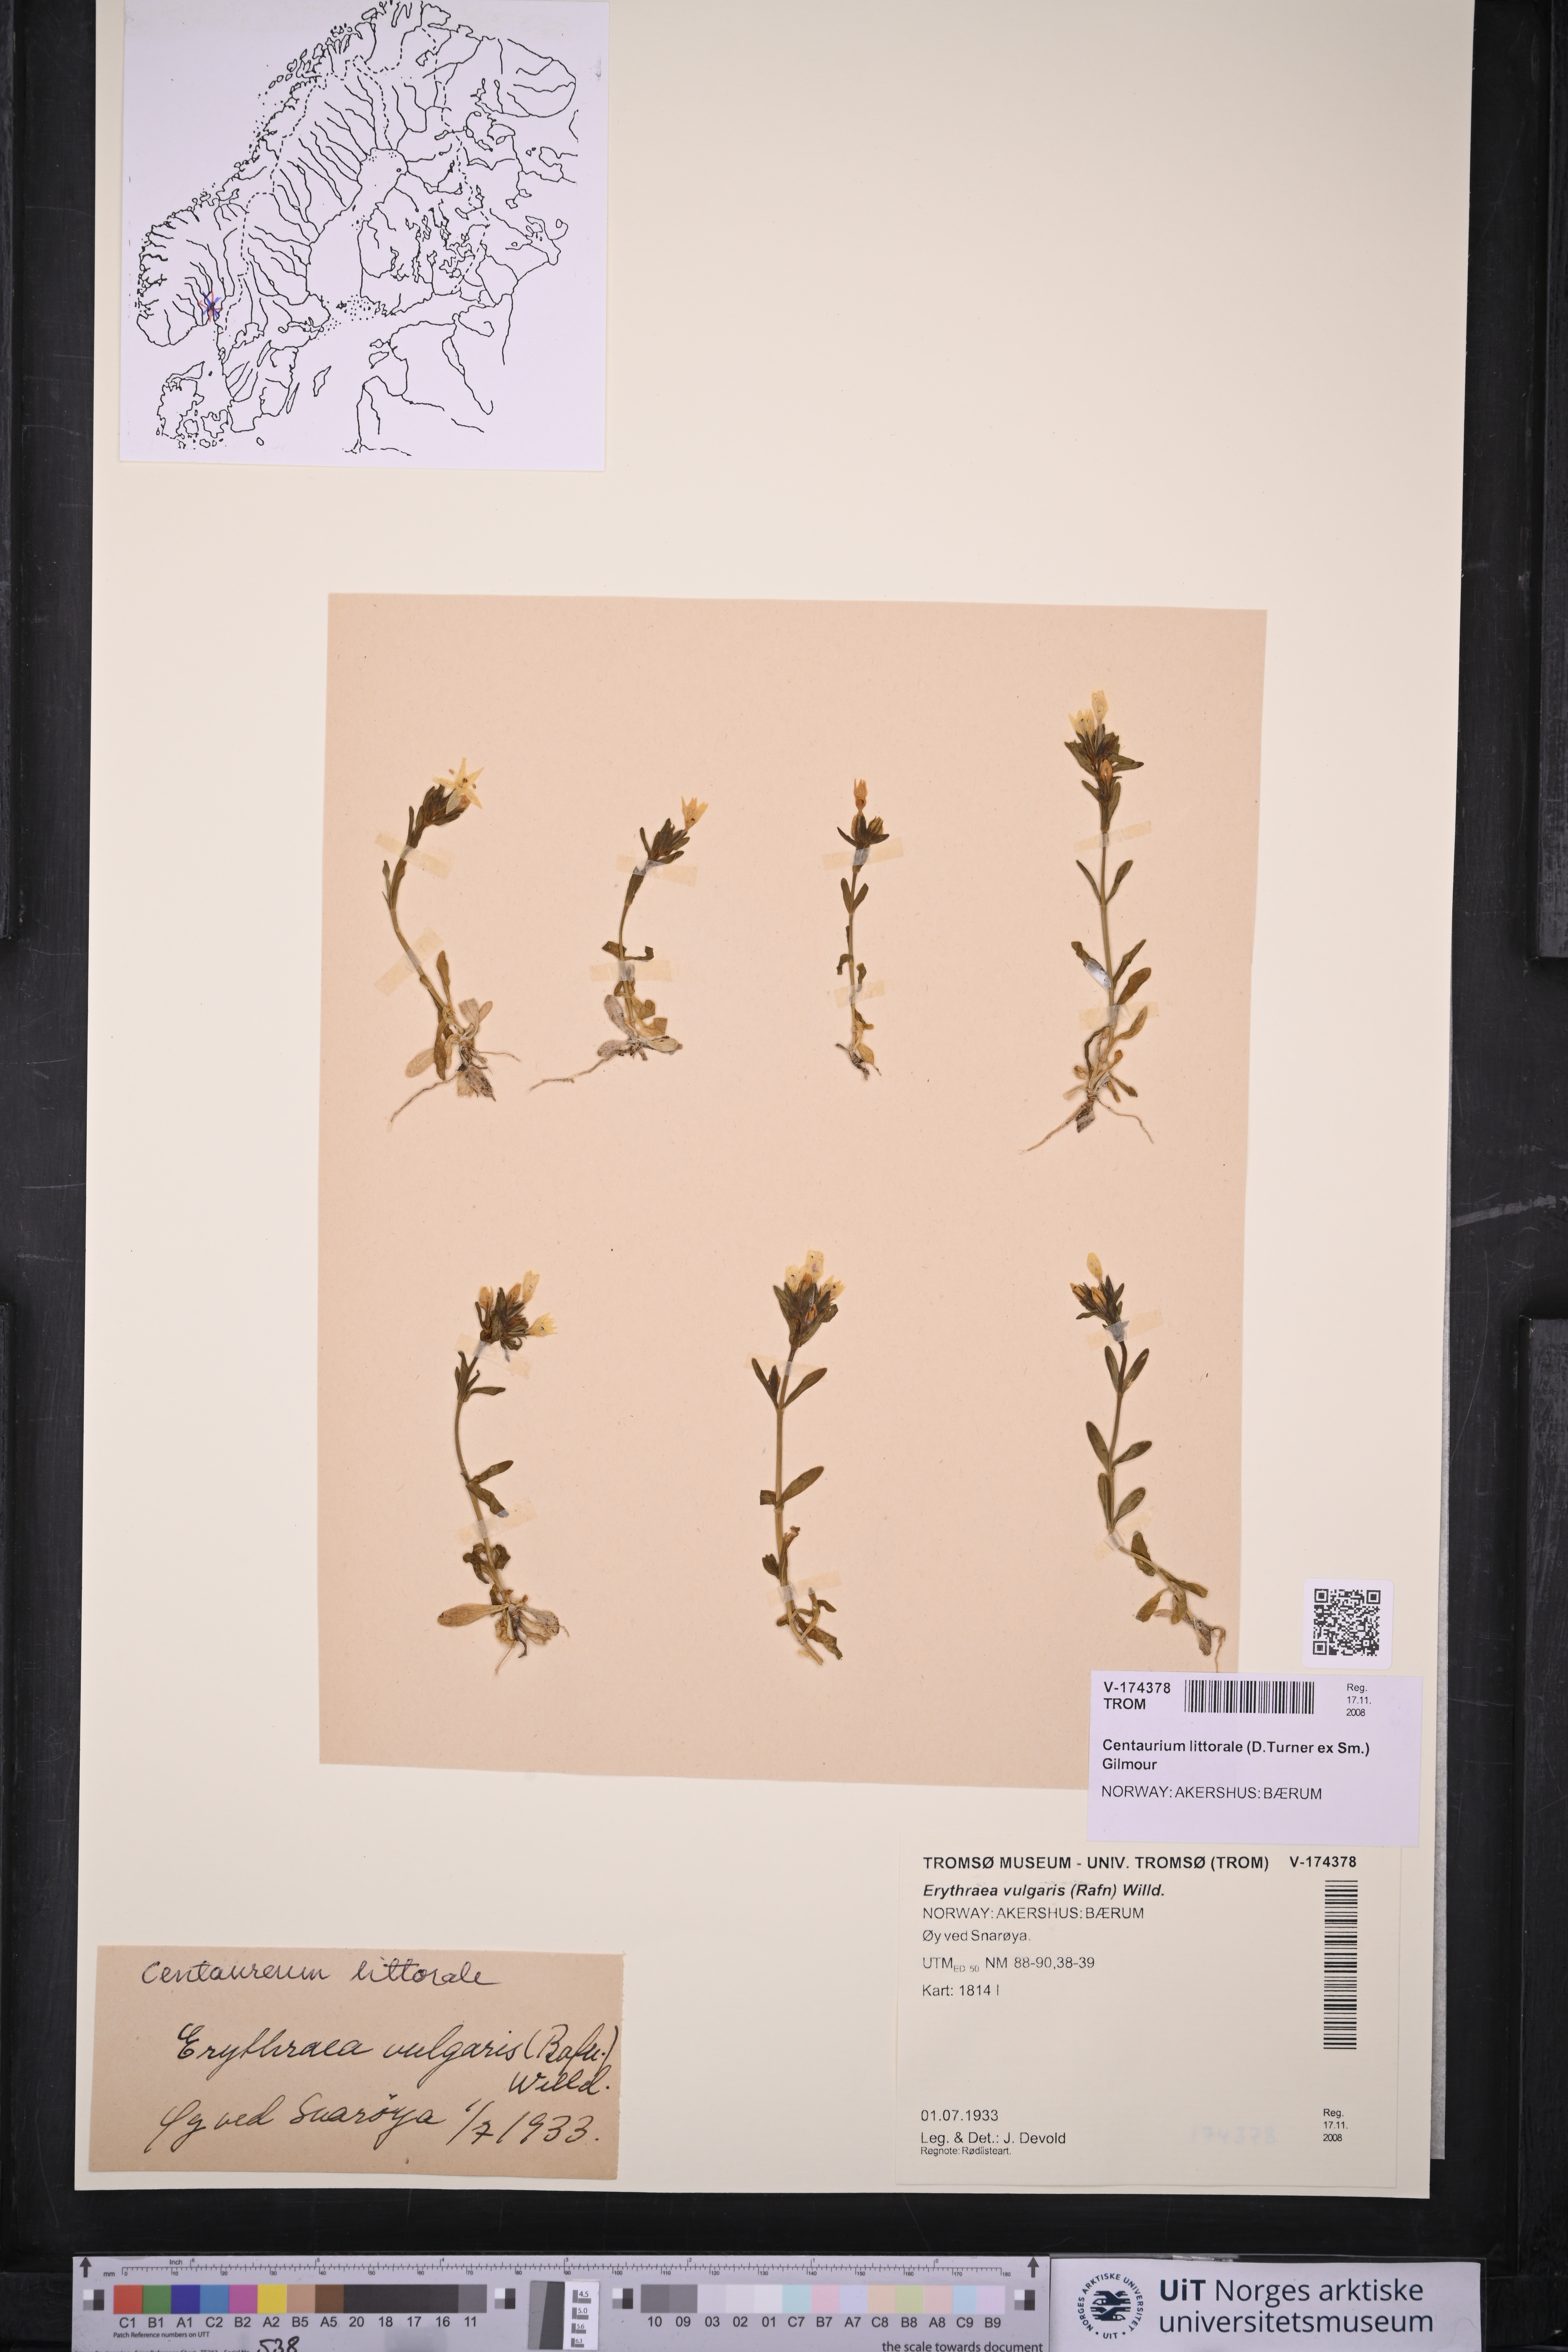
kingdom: Plantae
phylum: Tracheophyta
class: Magnoliopsida
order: Gentianales
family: Gentianaceae
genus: Centaurium
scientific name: Centaurium littorale
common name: Seaside centaury
